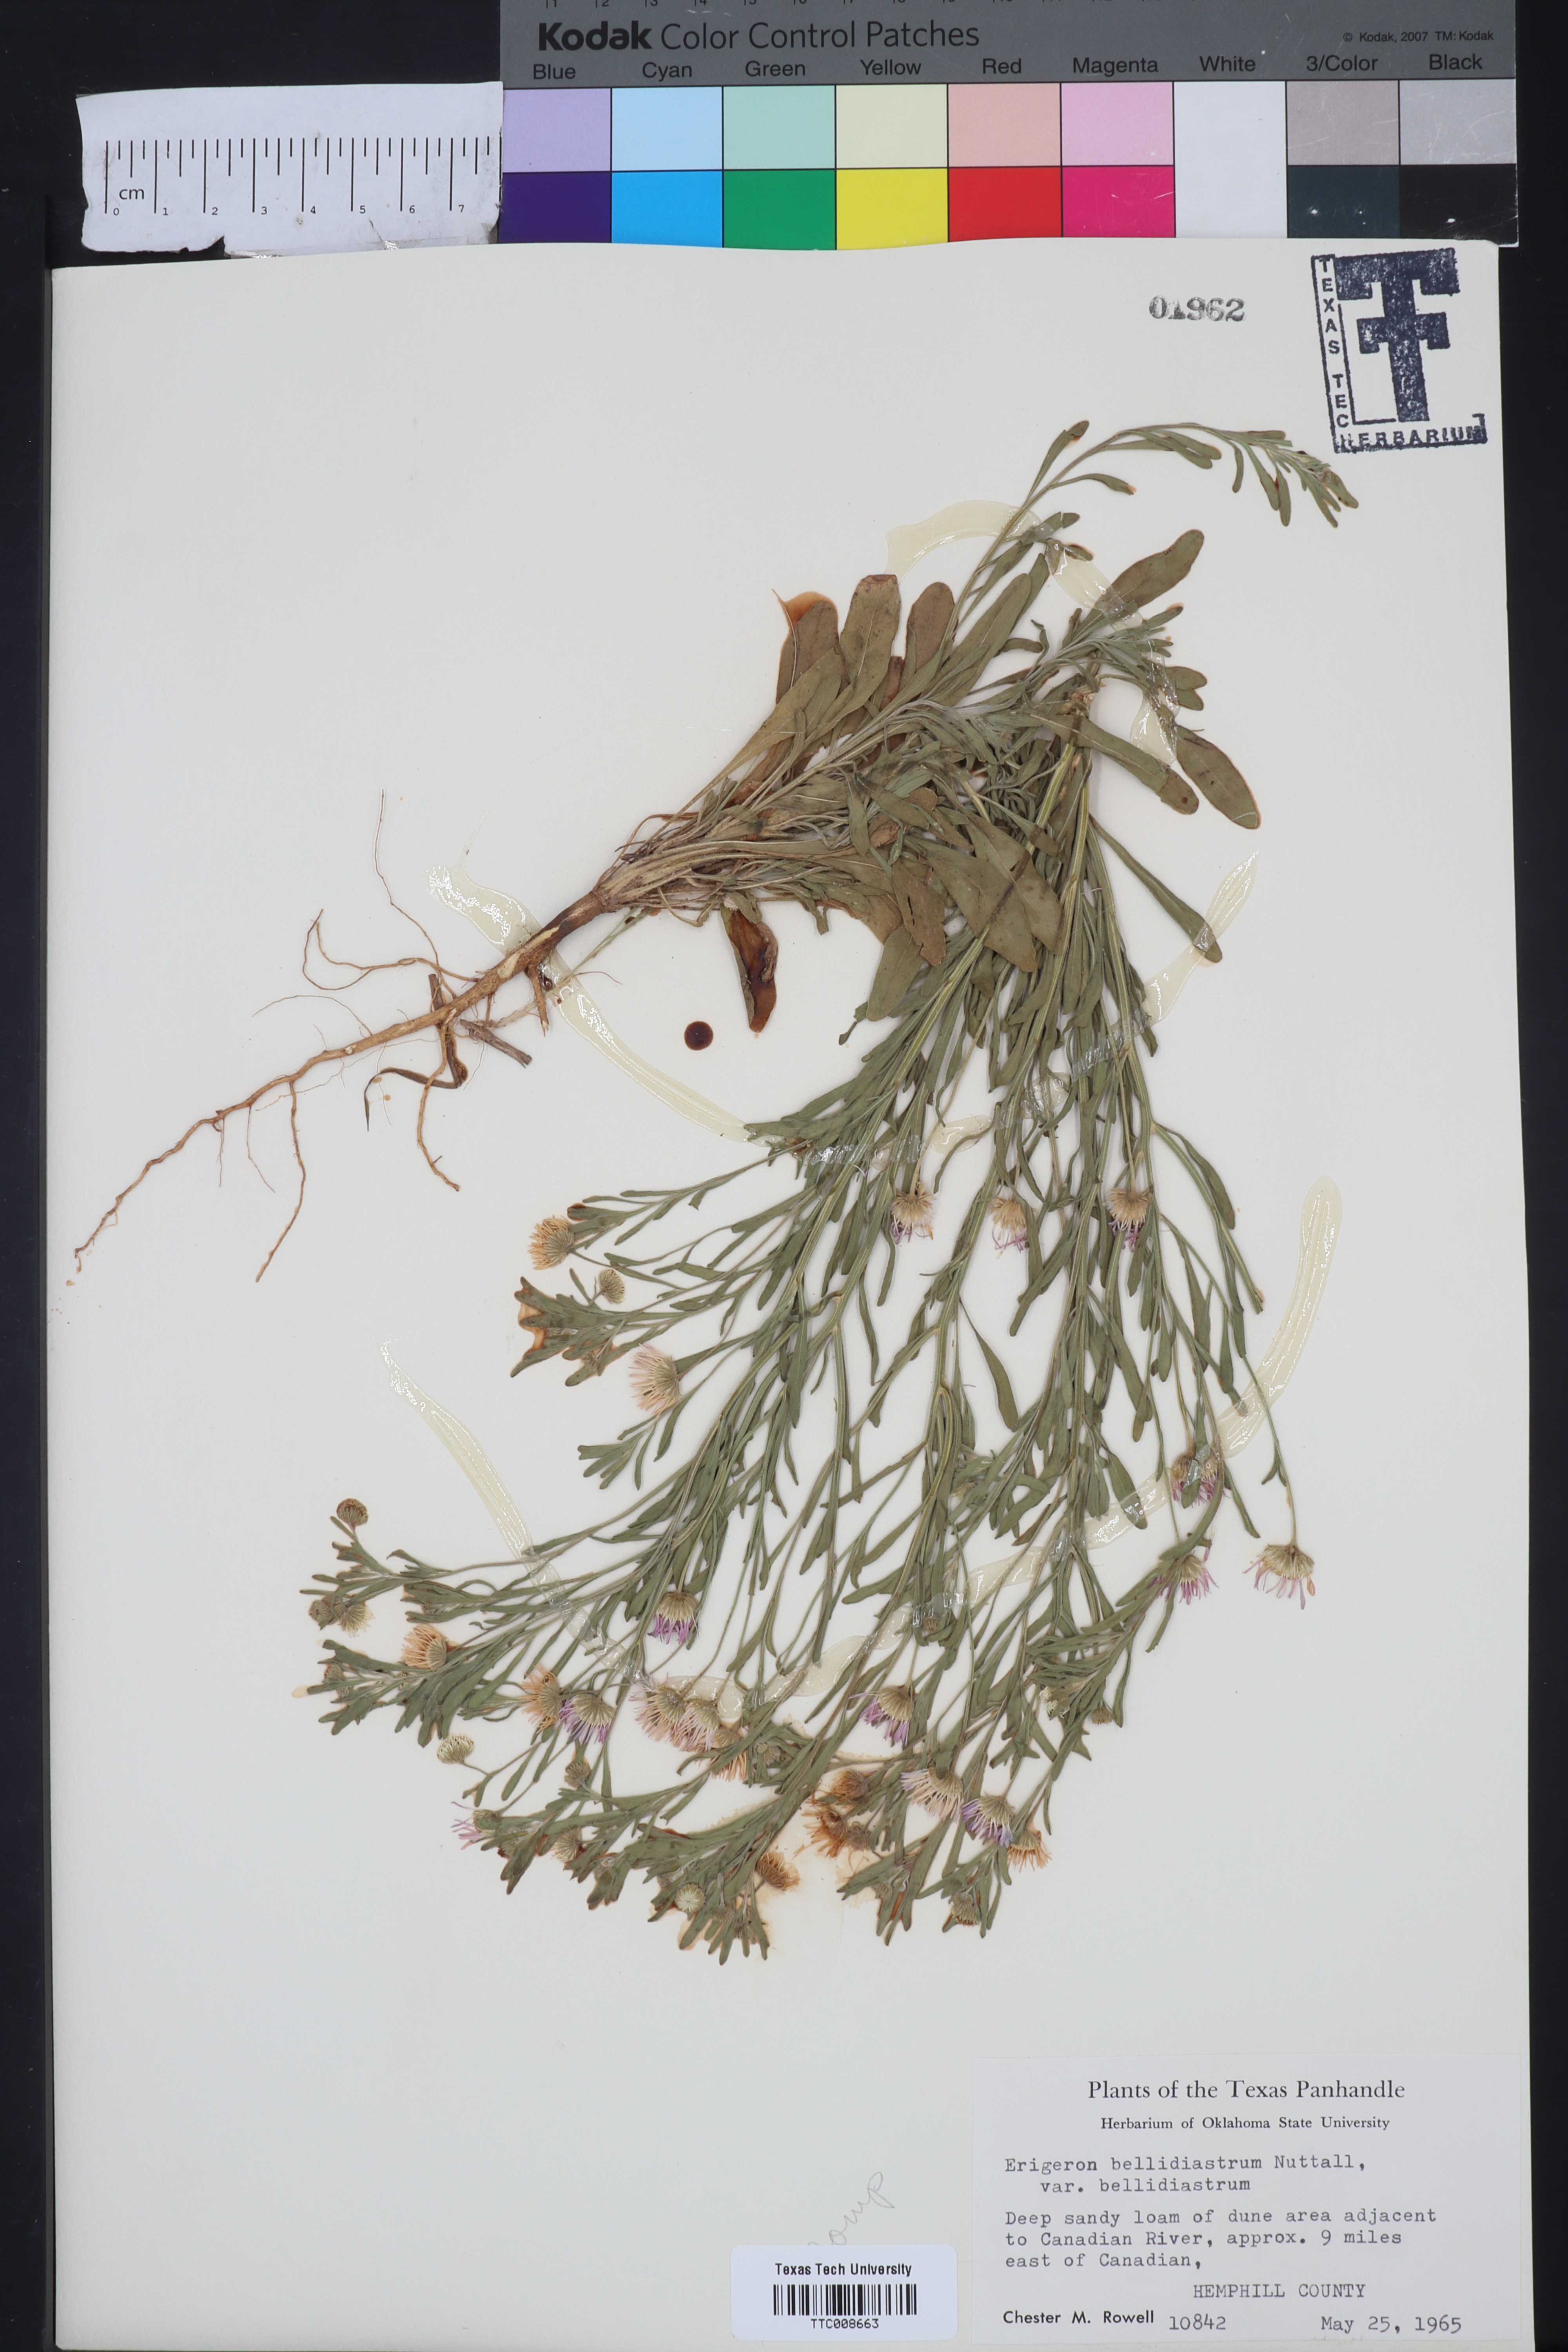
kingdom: Plantae
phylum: Tracheophyta
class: Magnoliopsida
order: Asterales
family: Asteraceae
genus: Erigeron
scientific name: Erigeron bellidiastrum
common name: Sand fleabane
